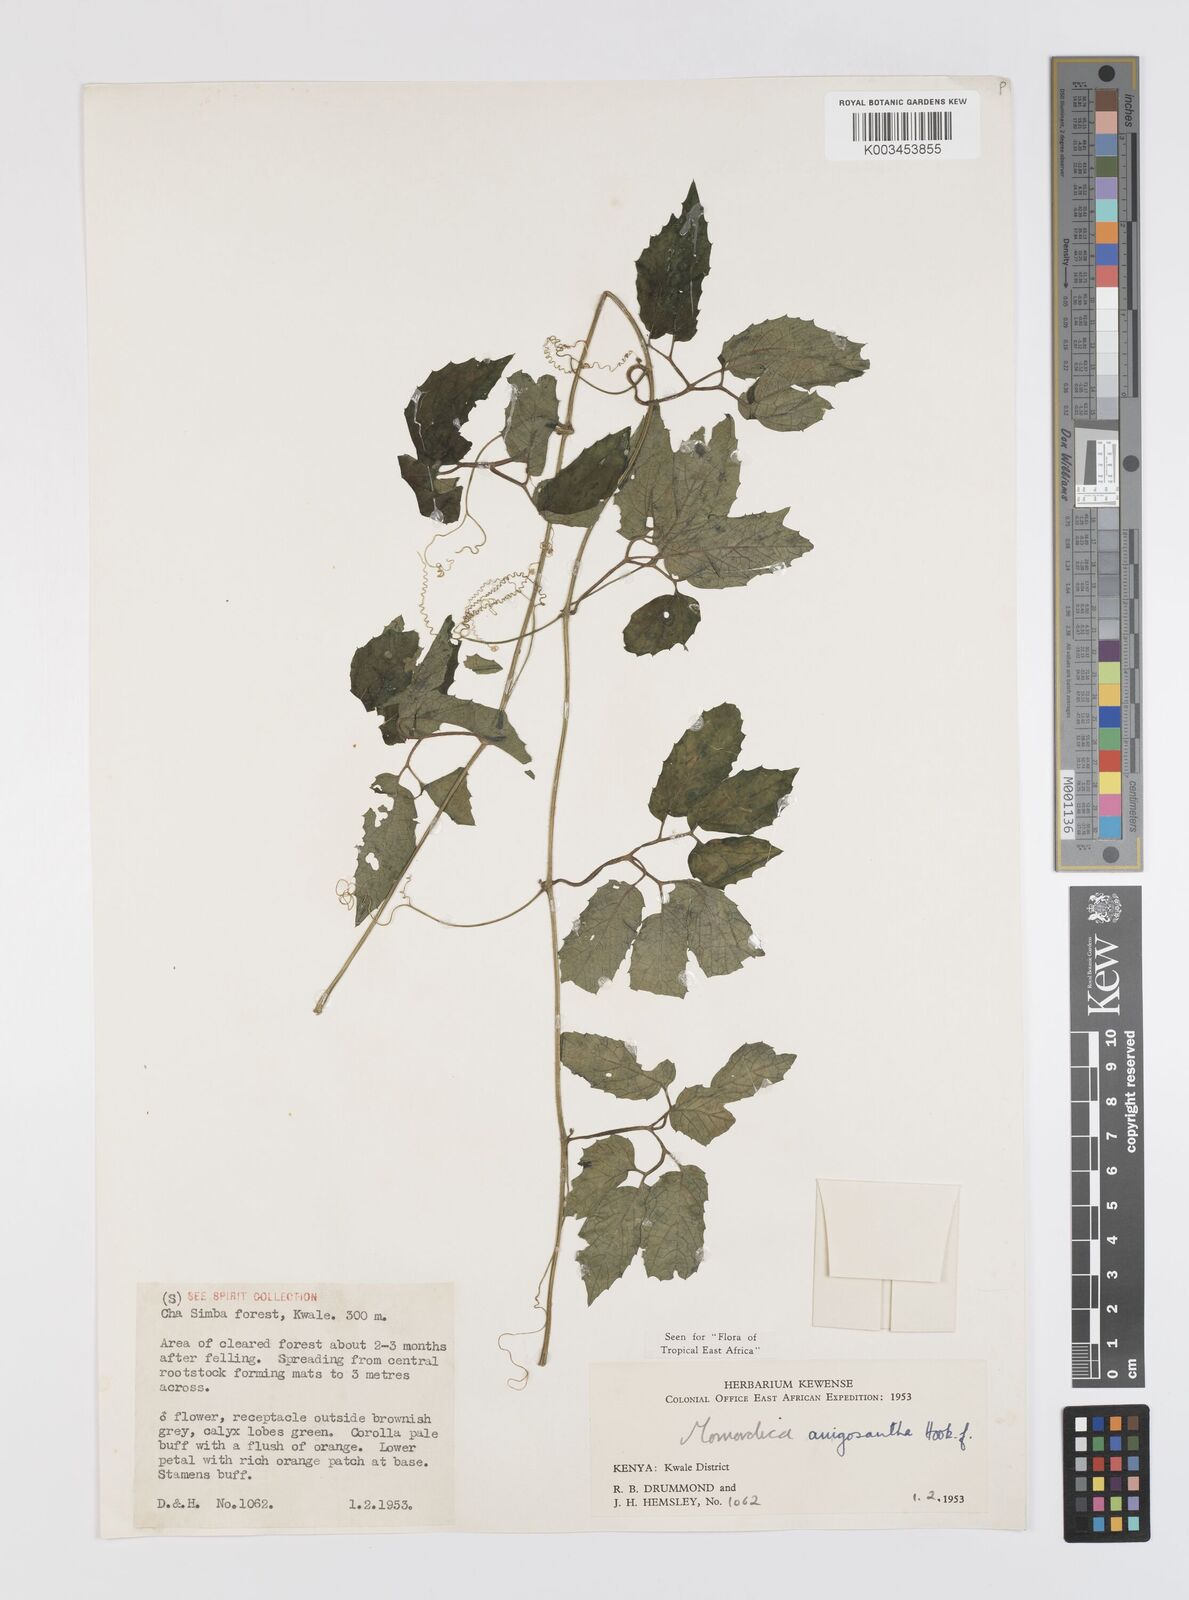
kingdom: Plantae
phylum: Tracheophyta
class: Magnoliopsida
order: Cucurbitales
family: Cucurbitaceae
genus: Momordica
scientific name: Momordica anigosantha
